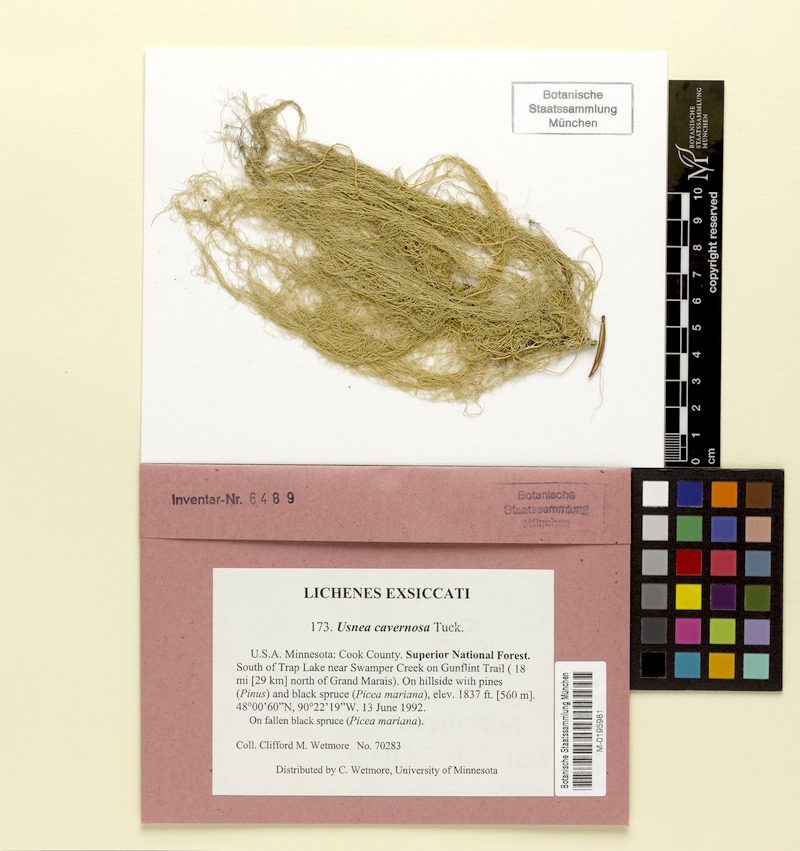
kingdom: Fungi
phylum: Ascomycota
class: Lecanoromycetes
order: Lecanorales
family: Parmeliaceae
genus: Usnea
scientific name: Usnea cavernosa
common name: Pitted beard lichen
